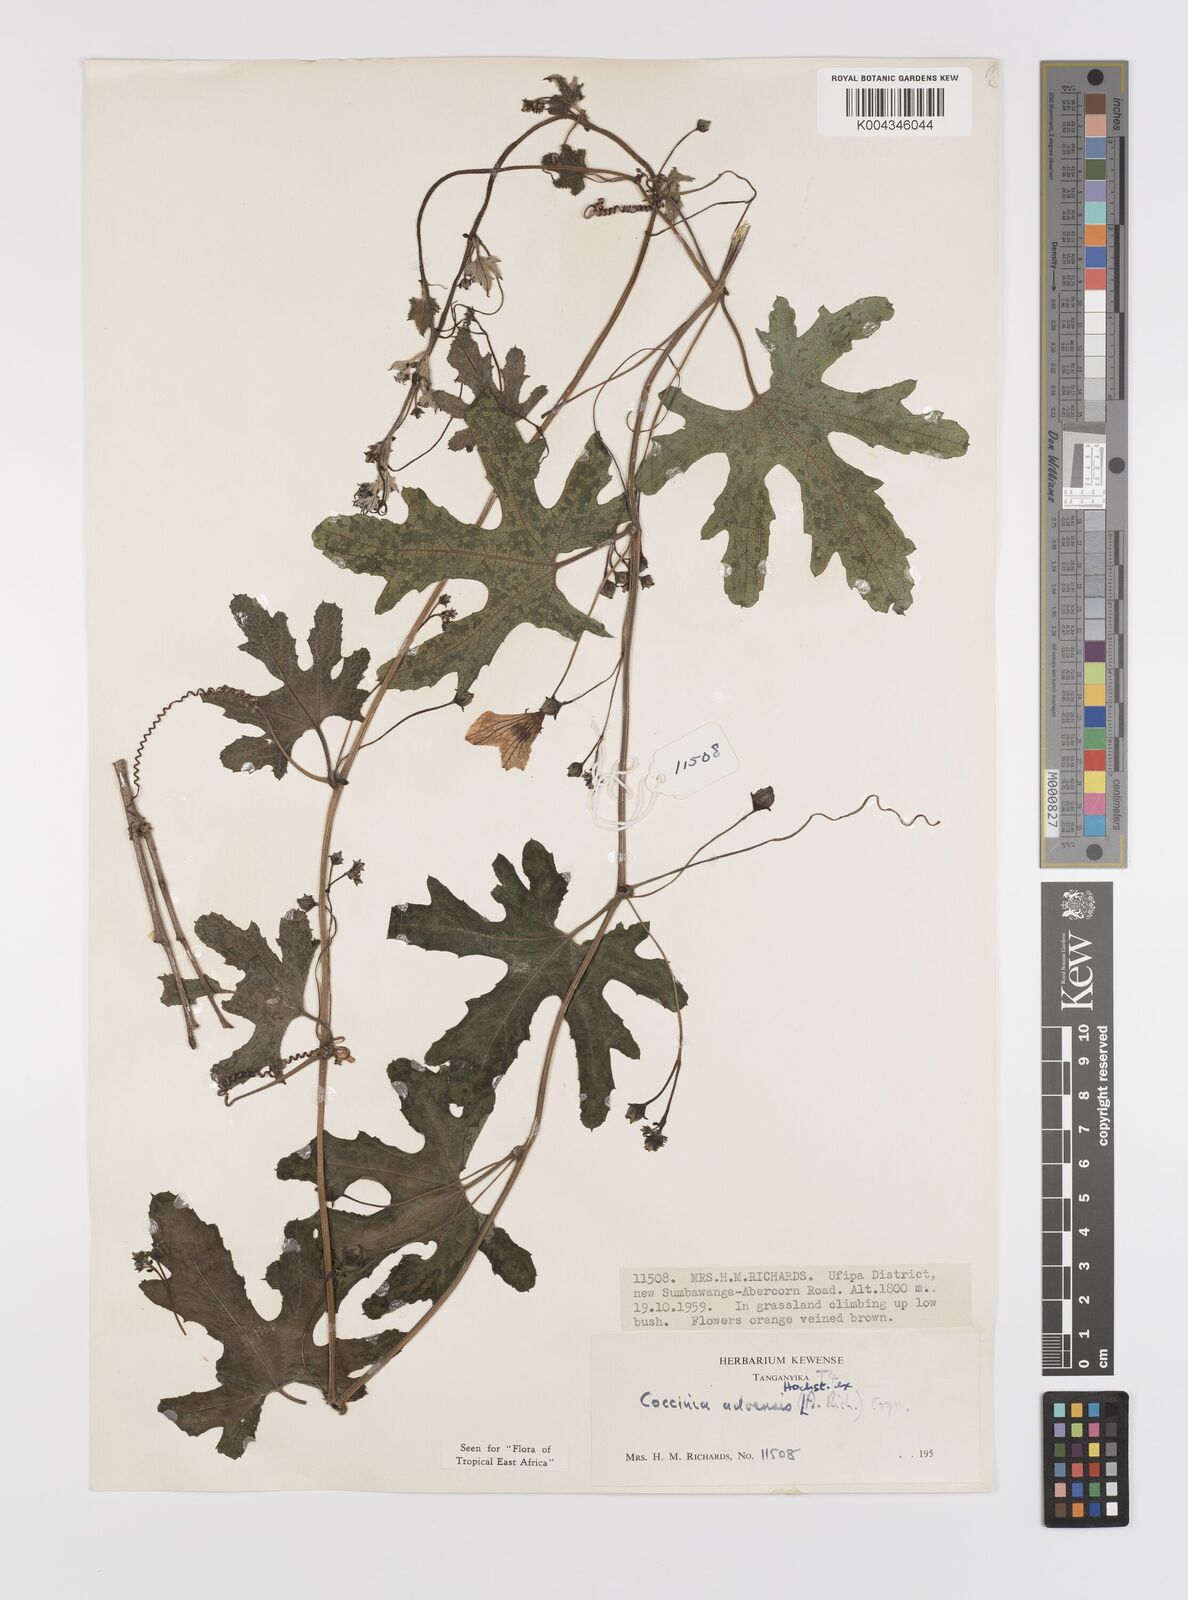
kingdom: Plantae
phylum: Tracheophyta
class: Magnoliopsida
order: Cucurbitales
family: Cucurbitaceae
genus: Coccinia
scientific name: Coccinia adoensis
